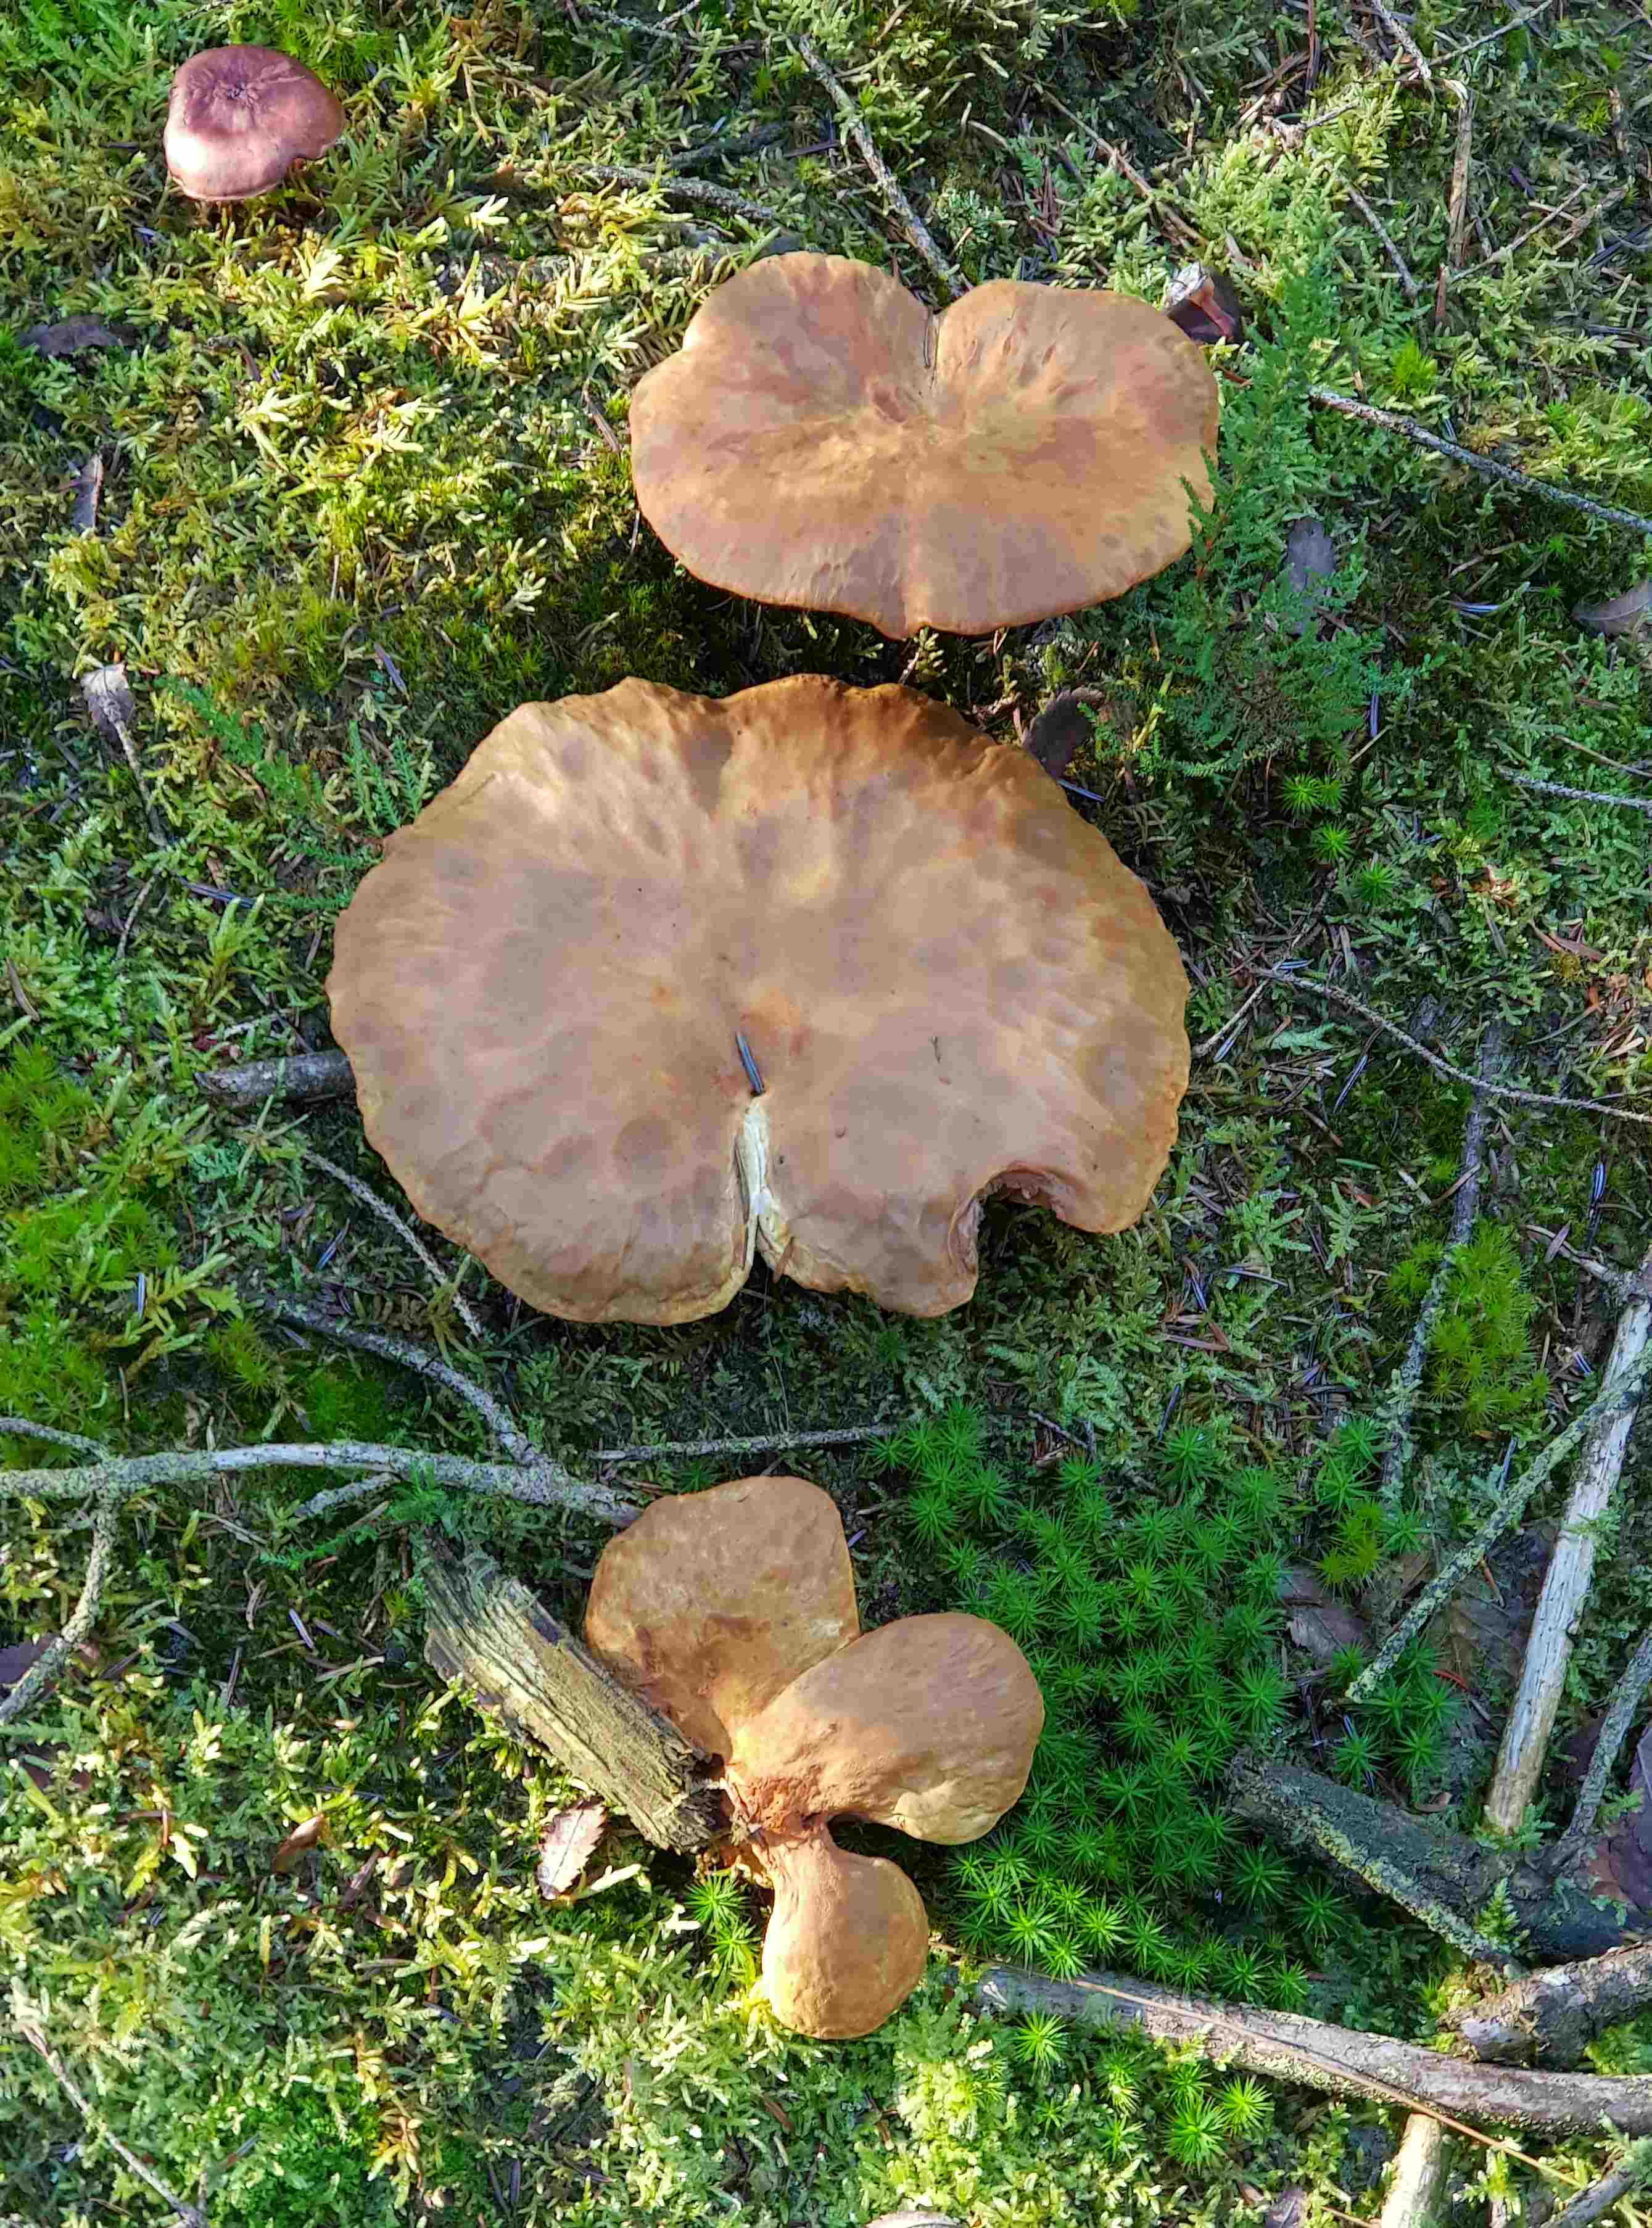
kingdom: Fungi
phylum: Basidiomycota
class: Agaricomycetes
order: Boletales
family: Tapinellaceae
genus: Tapinella
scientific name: Tapinella atrotomentosa
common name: sortfiltet viftesvamp
